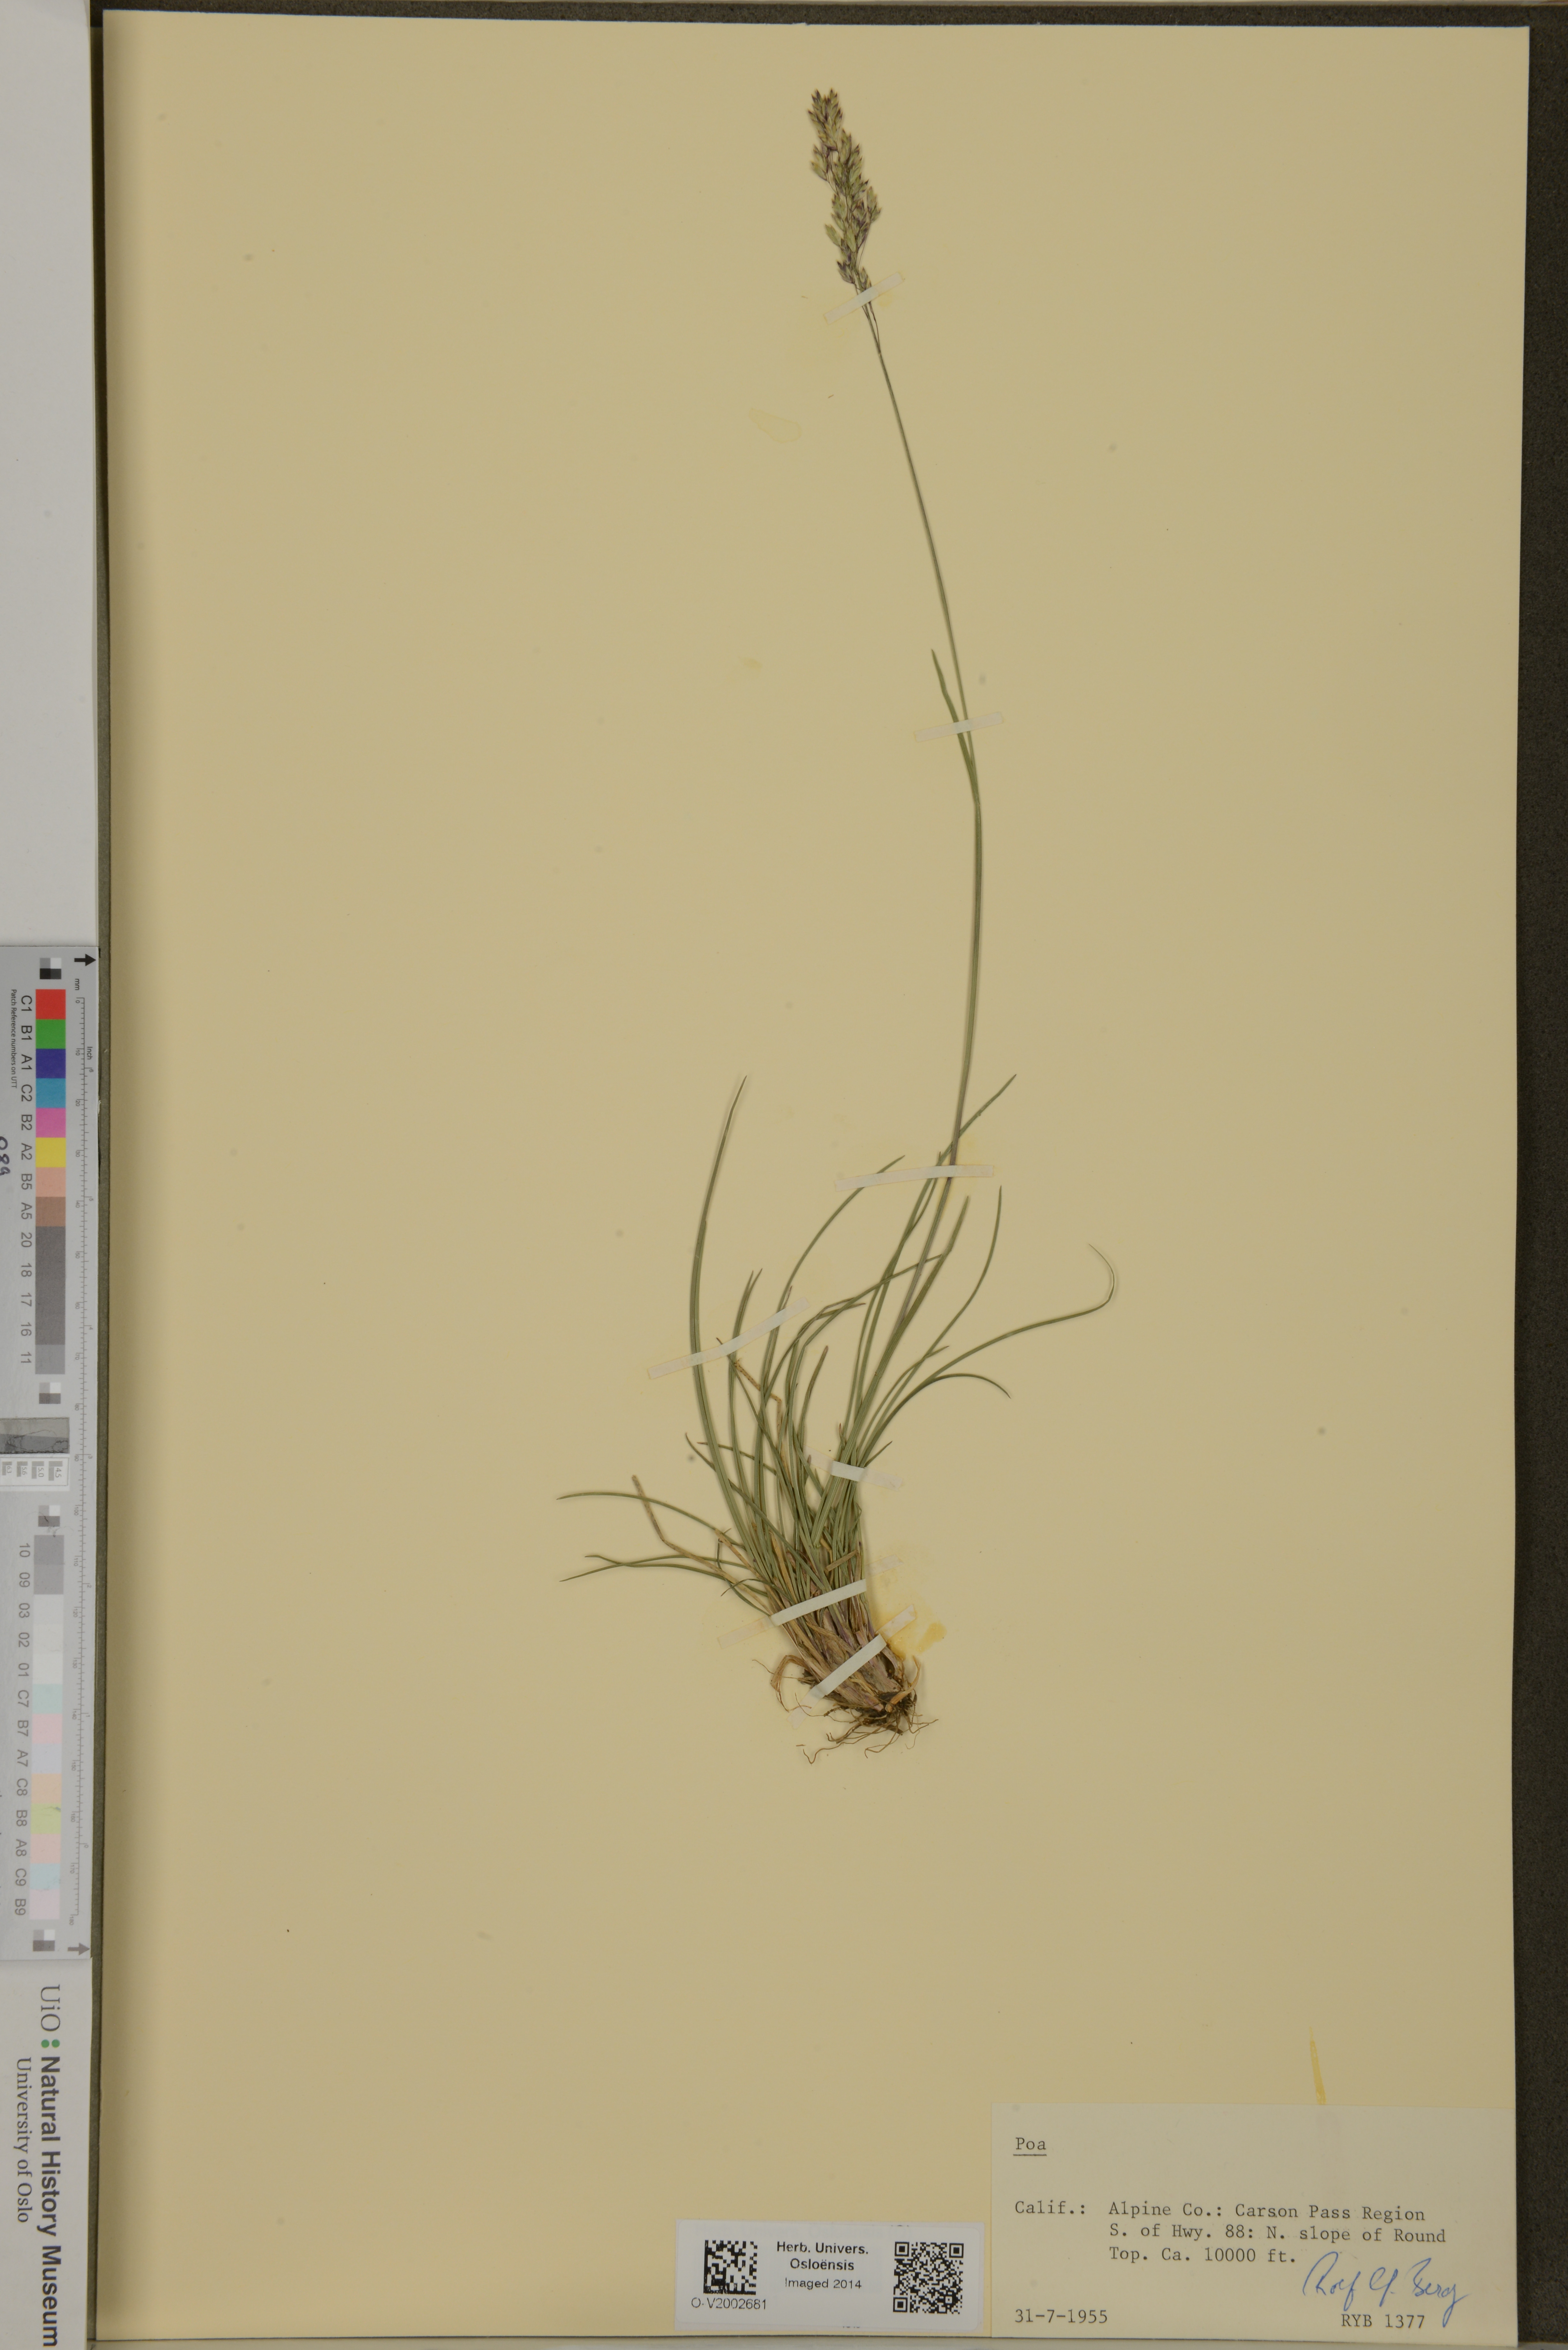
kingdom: Plantae
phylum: Tracheophyta
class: Liliopsida
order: Poales
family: Poaceae
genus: Poa
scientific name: Poa
